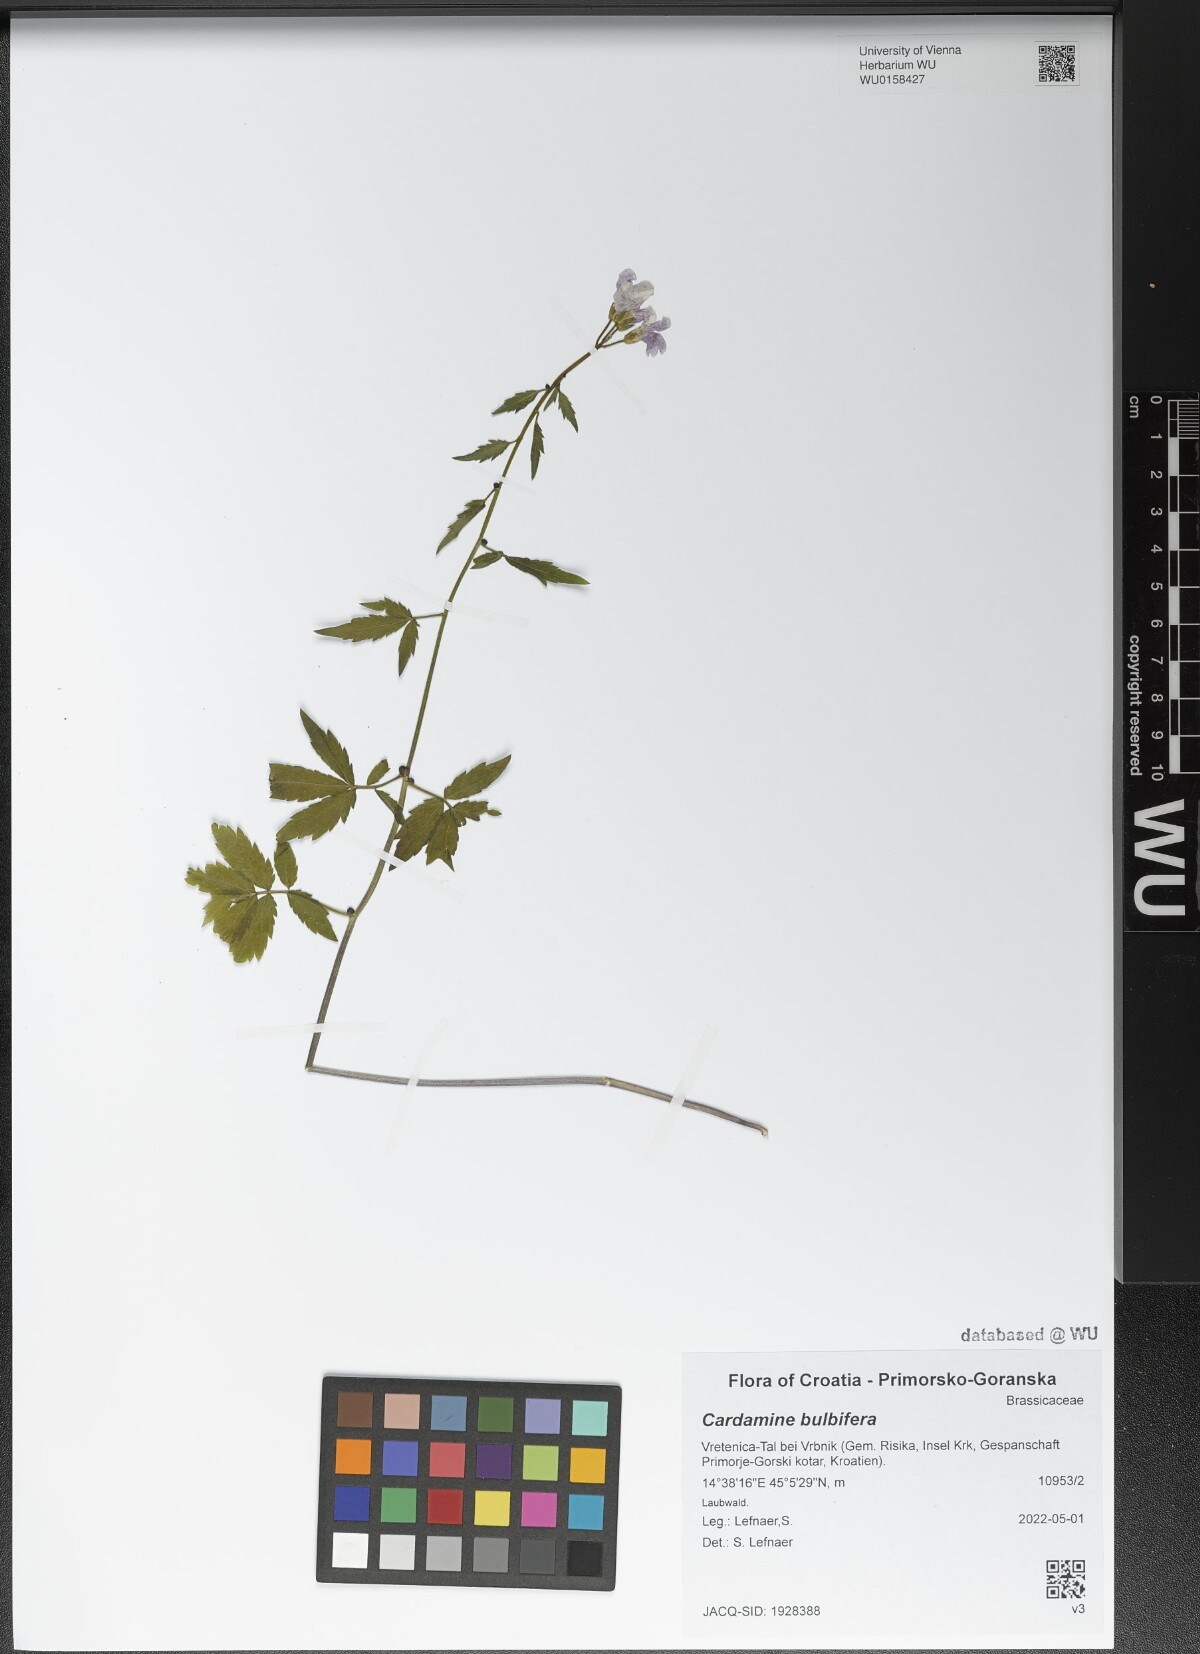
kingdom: Plantae
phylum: Tracheophyta
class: Magnoliopsida
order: Brassicales
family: Brassicaceae
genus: Cardamine
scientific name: Cardamine bulbifera
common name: Coralroot bittercress
